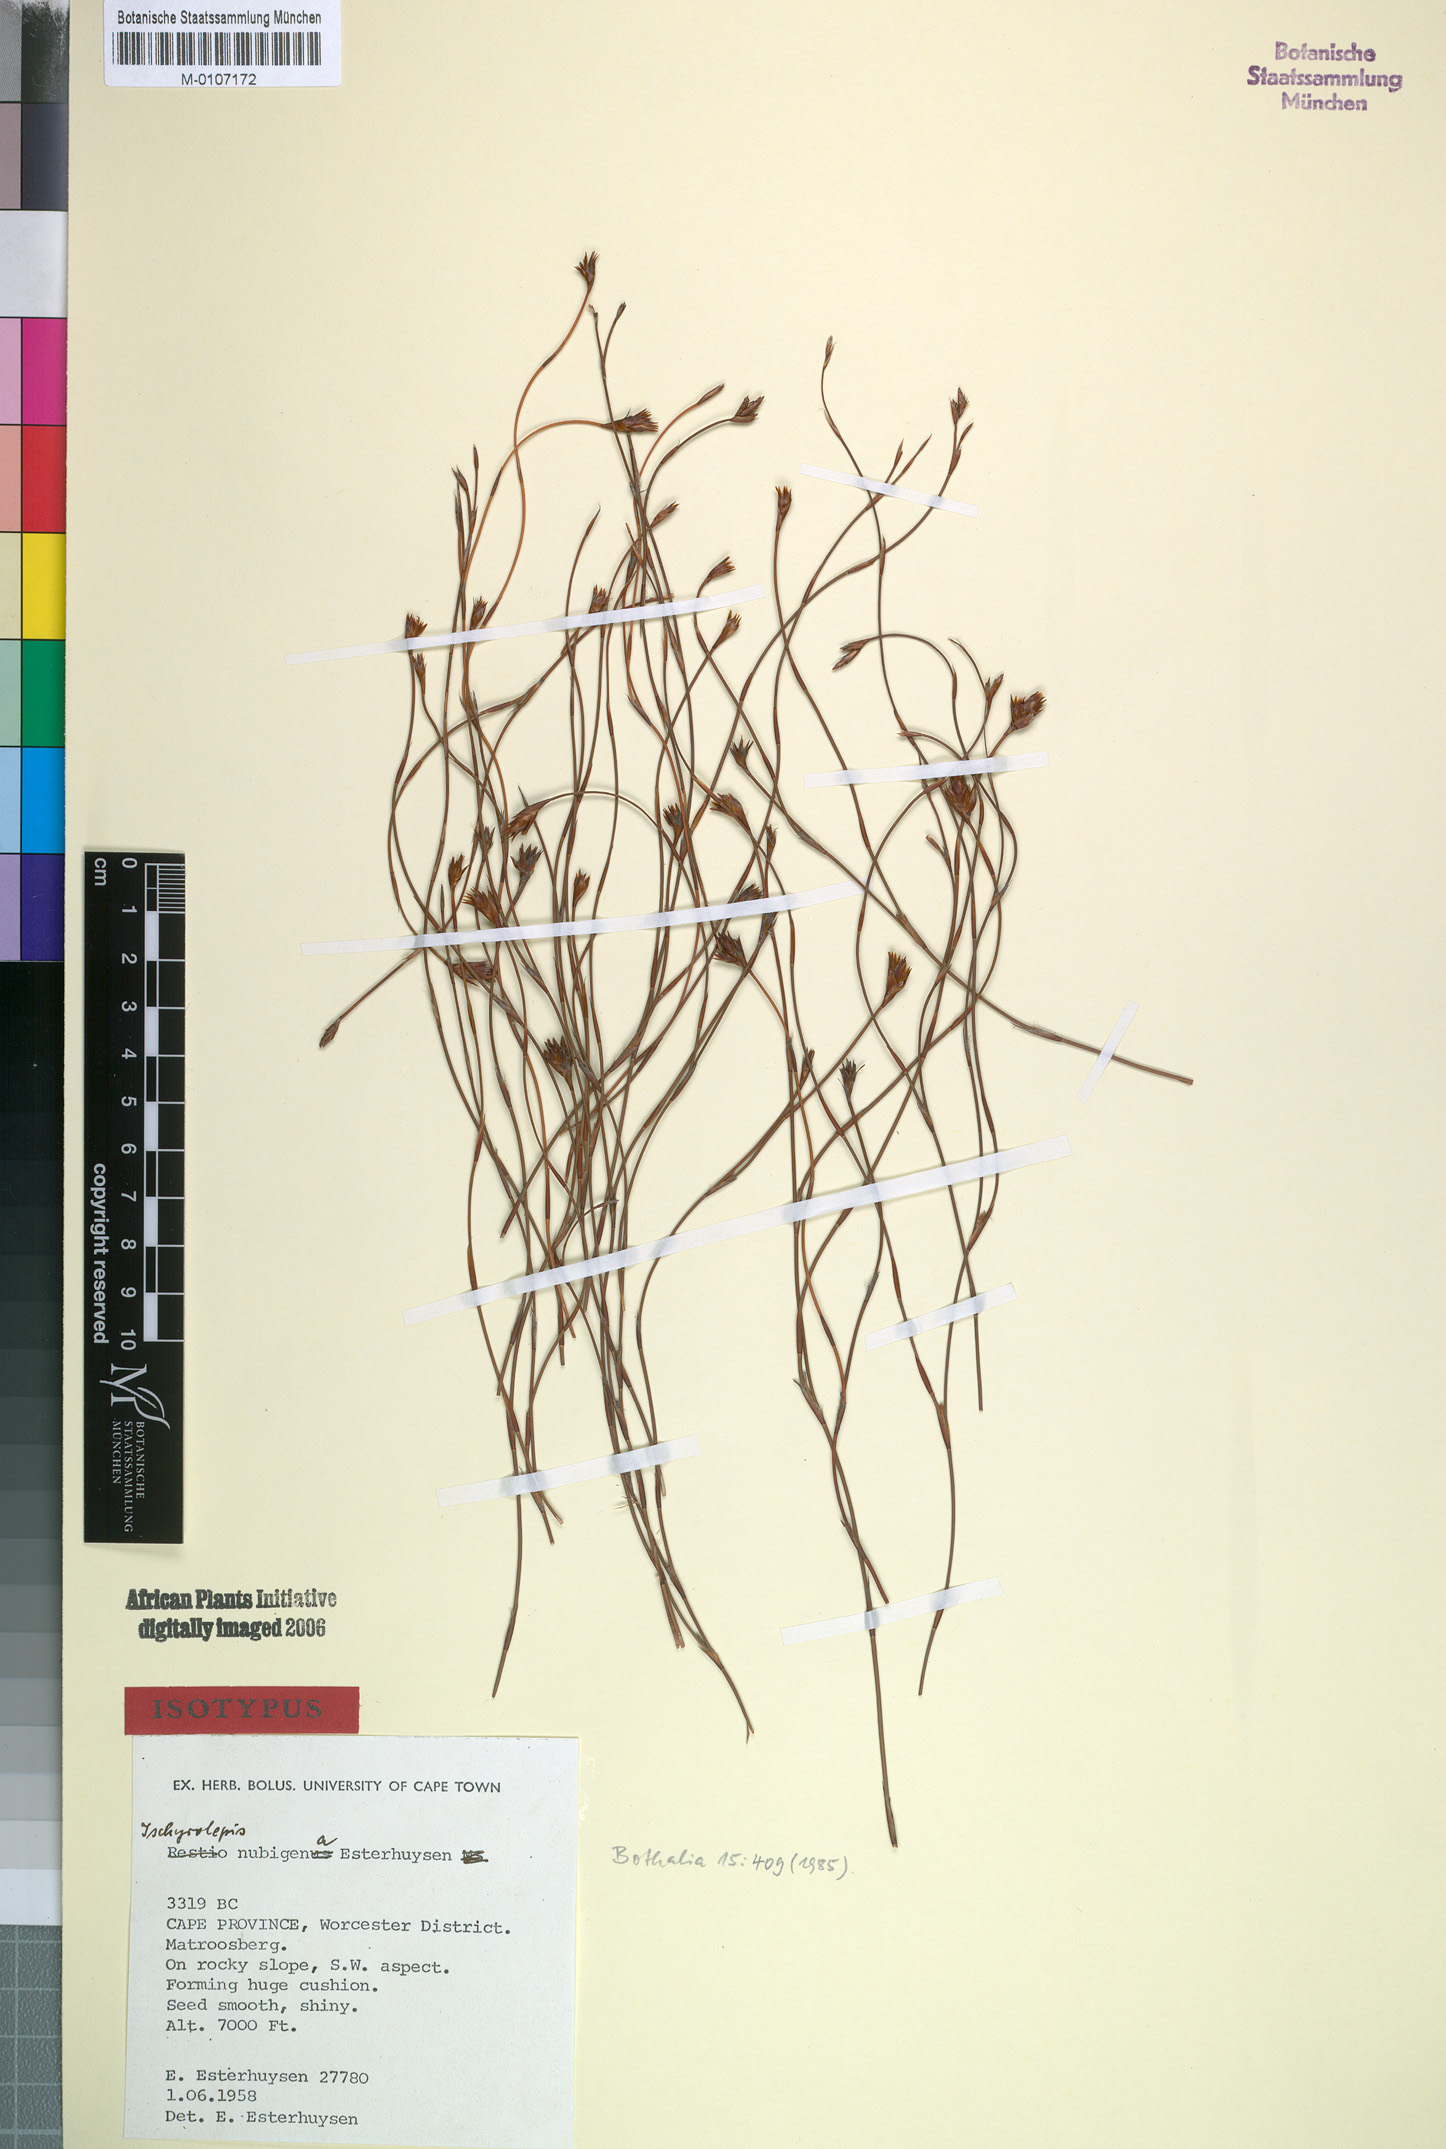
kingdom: Plantae
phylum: Tracheophyta
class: Liliopsida
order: Poales
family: Restionaceae
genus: Restio
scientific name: Restio nubigenus
